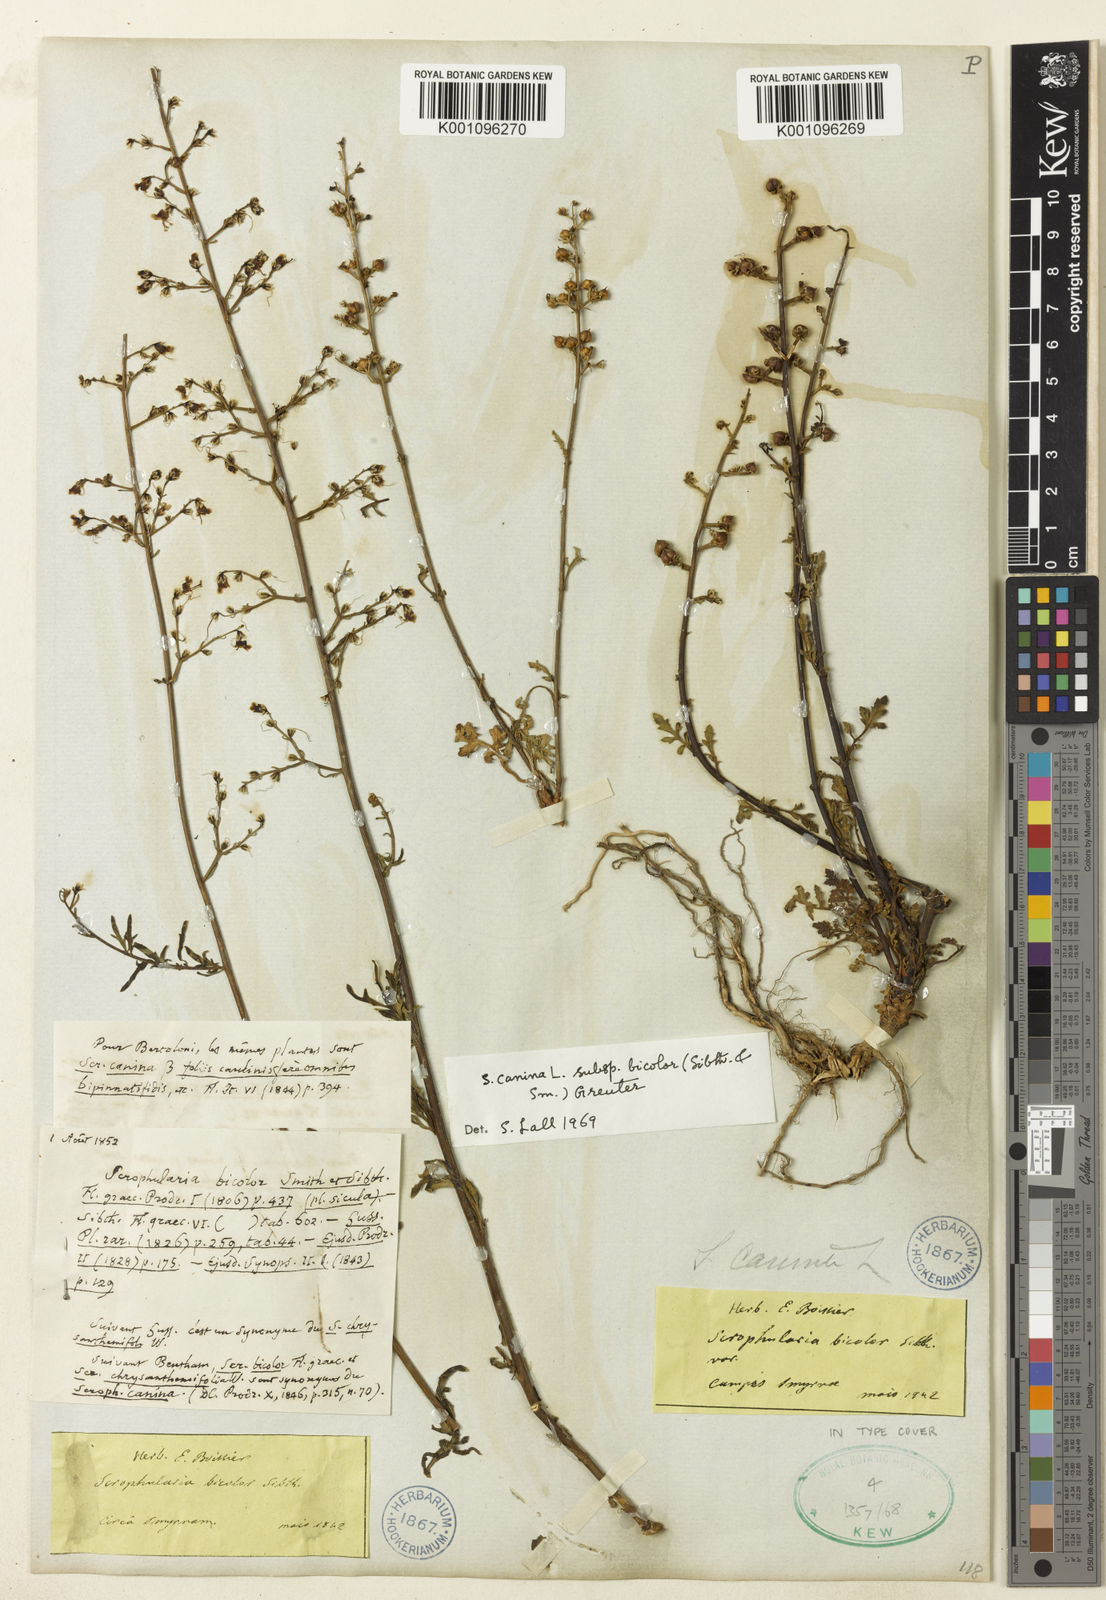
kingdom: Plantae
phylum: Tracheophyta
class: Magnoliopsida
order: Lamiales
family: Scrophulariaceae
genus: Scrophularia
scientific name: Scrophularia canina
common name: French figwort
